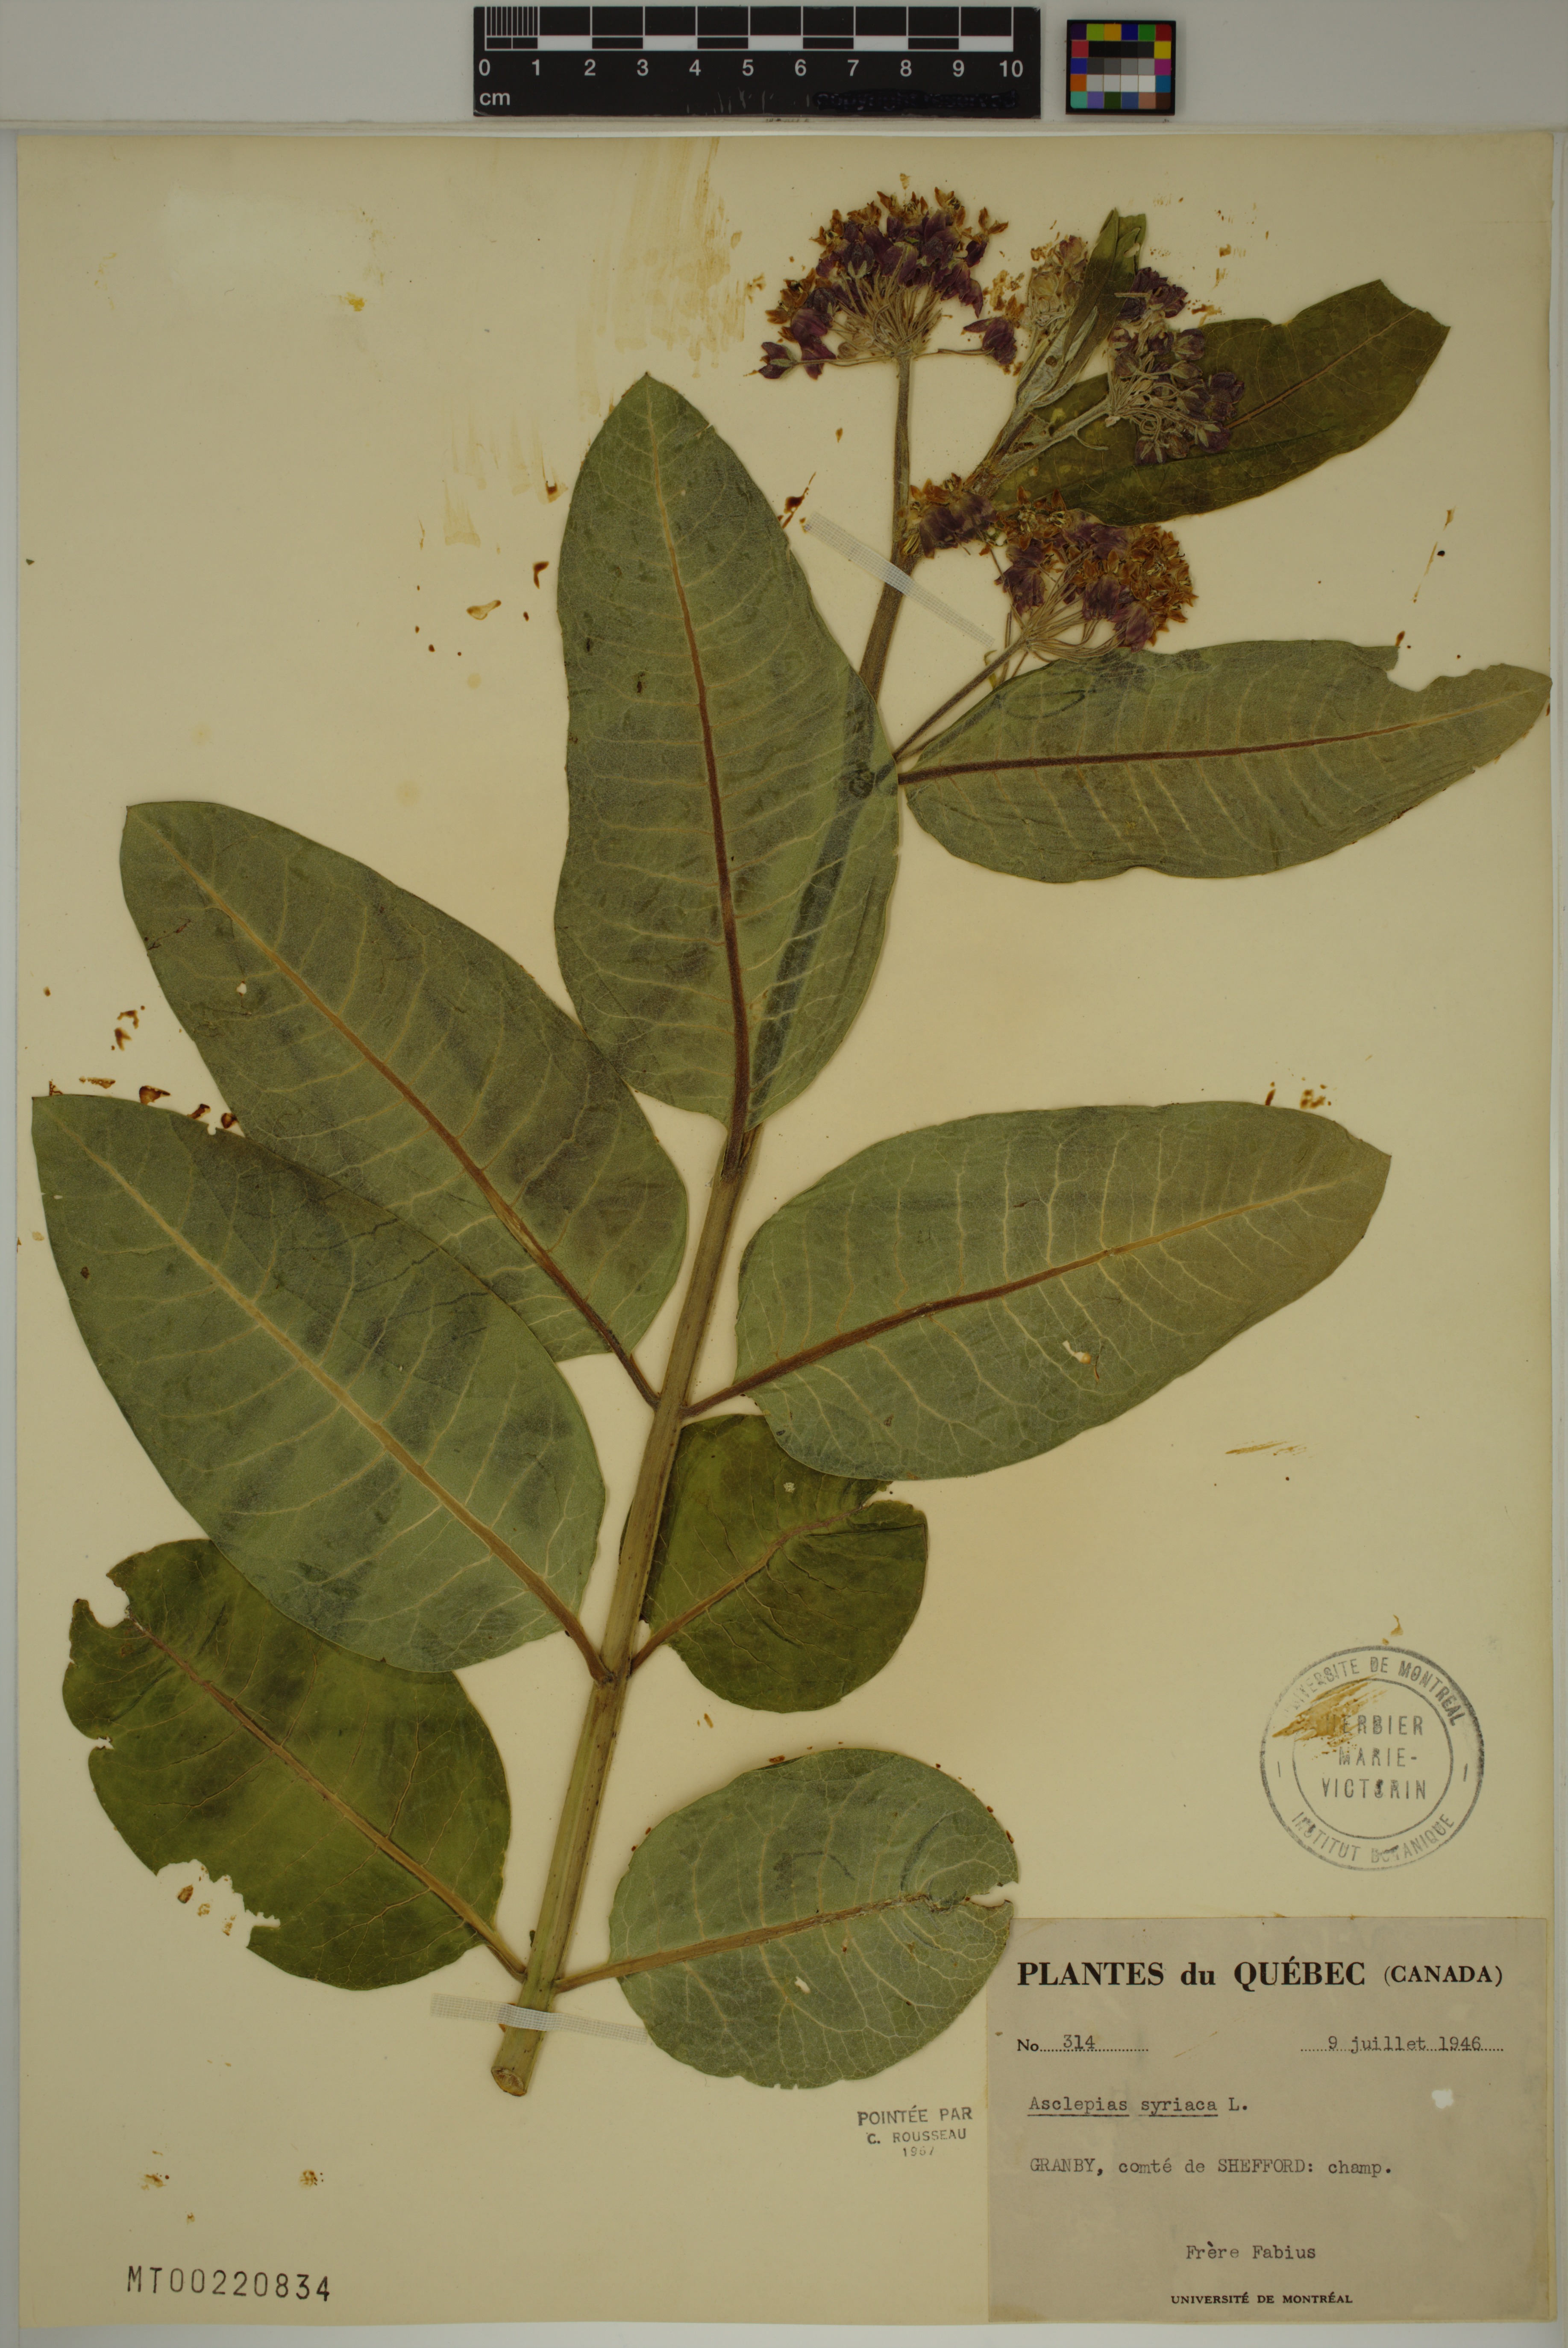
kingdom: Plantae
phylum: Tracheophyta
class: Magnoliopsida
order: Gentianales
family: Apocynaceae
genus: Asclepias
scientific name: Asclepias syriaca
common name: Common milkweed
